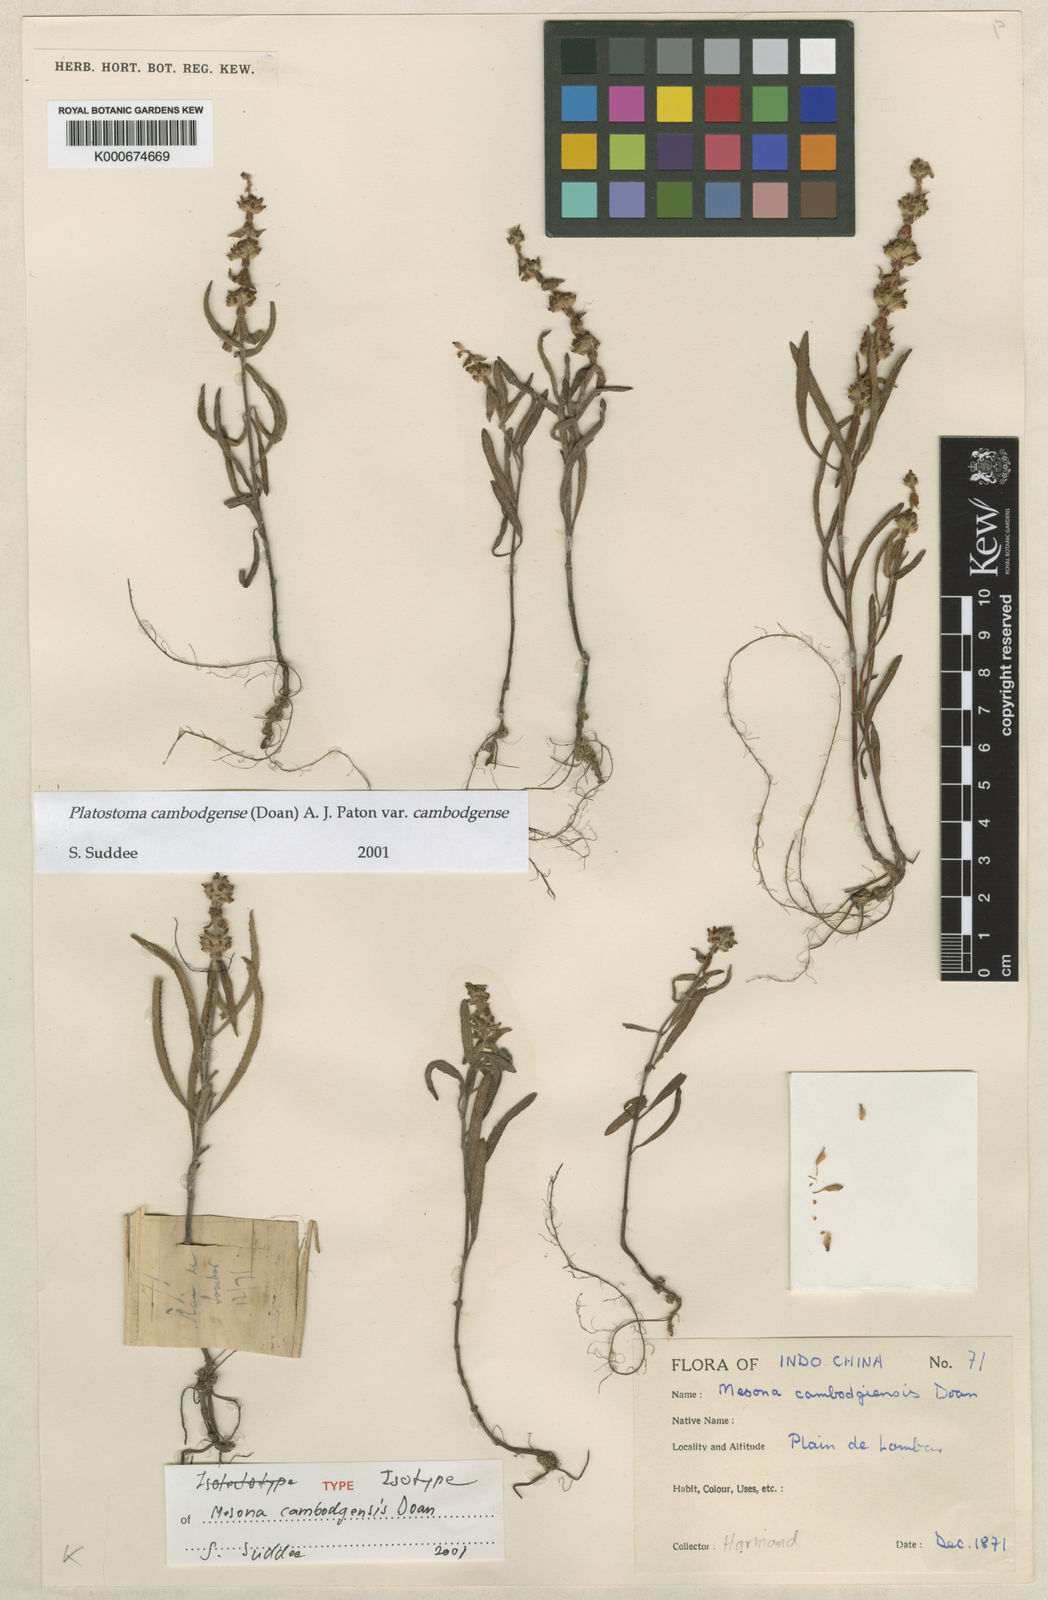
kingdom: Plantae
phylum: Tracheophyta
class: Magnoliopsida
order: Lamiales
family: Lamiaceae
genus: Platostoma
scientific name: Platostoma cambodgense
